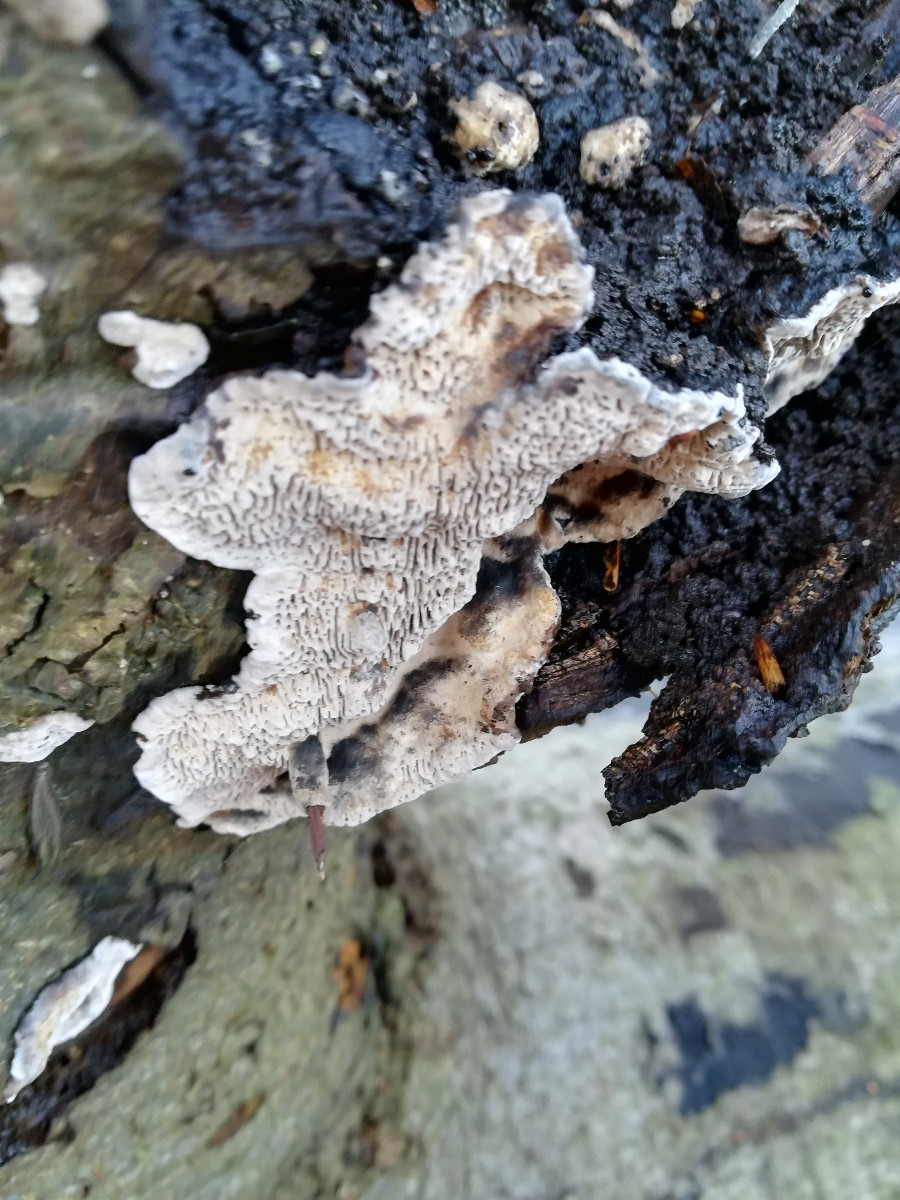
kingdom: Fungi
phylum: Basidiomycota
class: Agaricomycetes
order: Polyporales
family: Polyporaceae
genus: Podofomes
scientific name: Podofomes mollis
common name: blød begporesvamp
